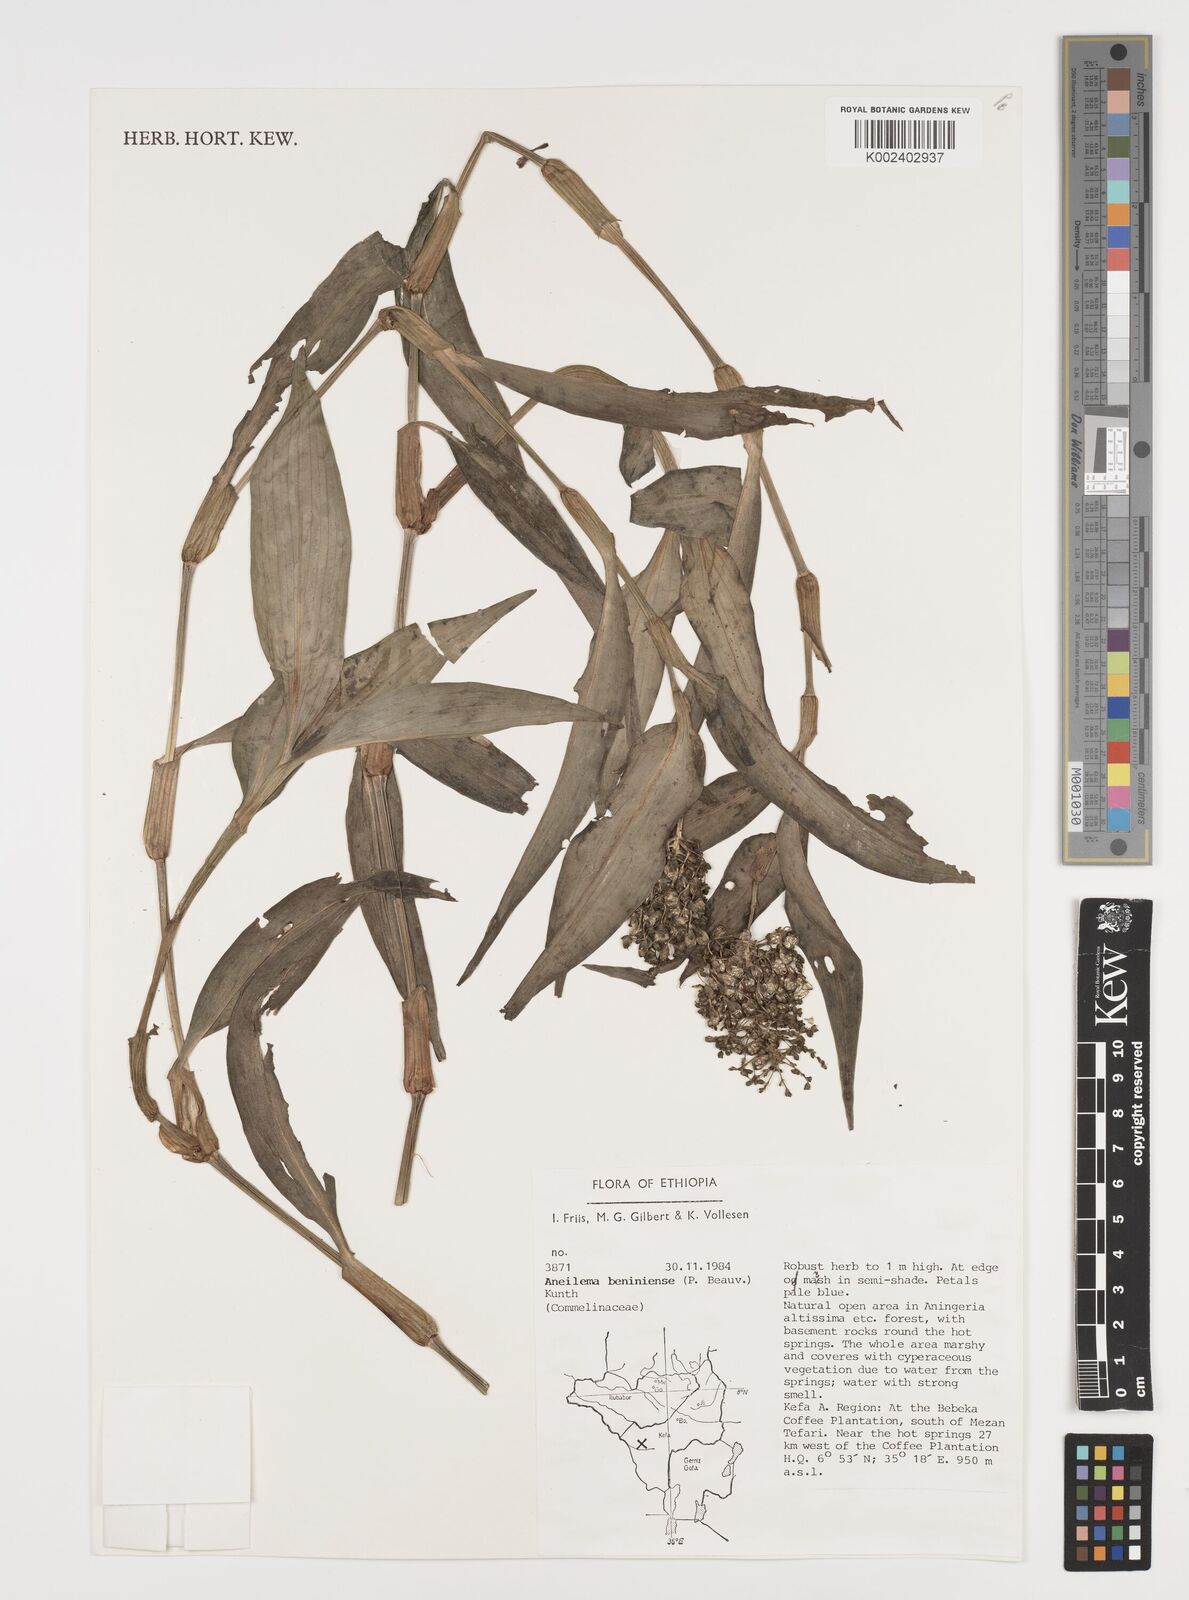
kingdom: Plantae
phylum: Tracheophyta
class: Liliopsida
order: Commelinales
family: Commelinaceae
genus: Aneilema
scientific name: Aneilema beniniense
